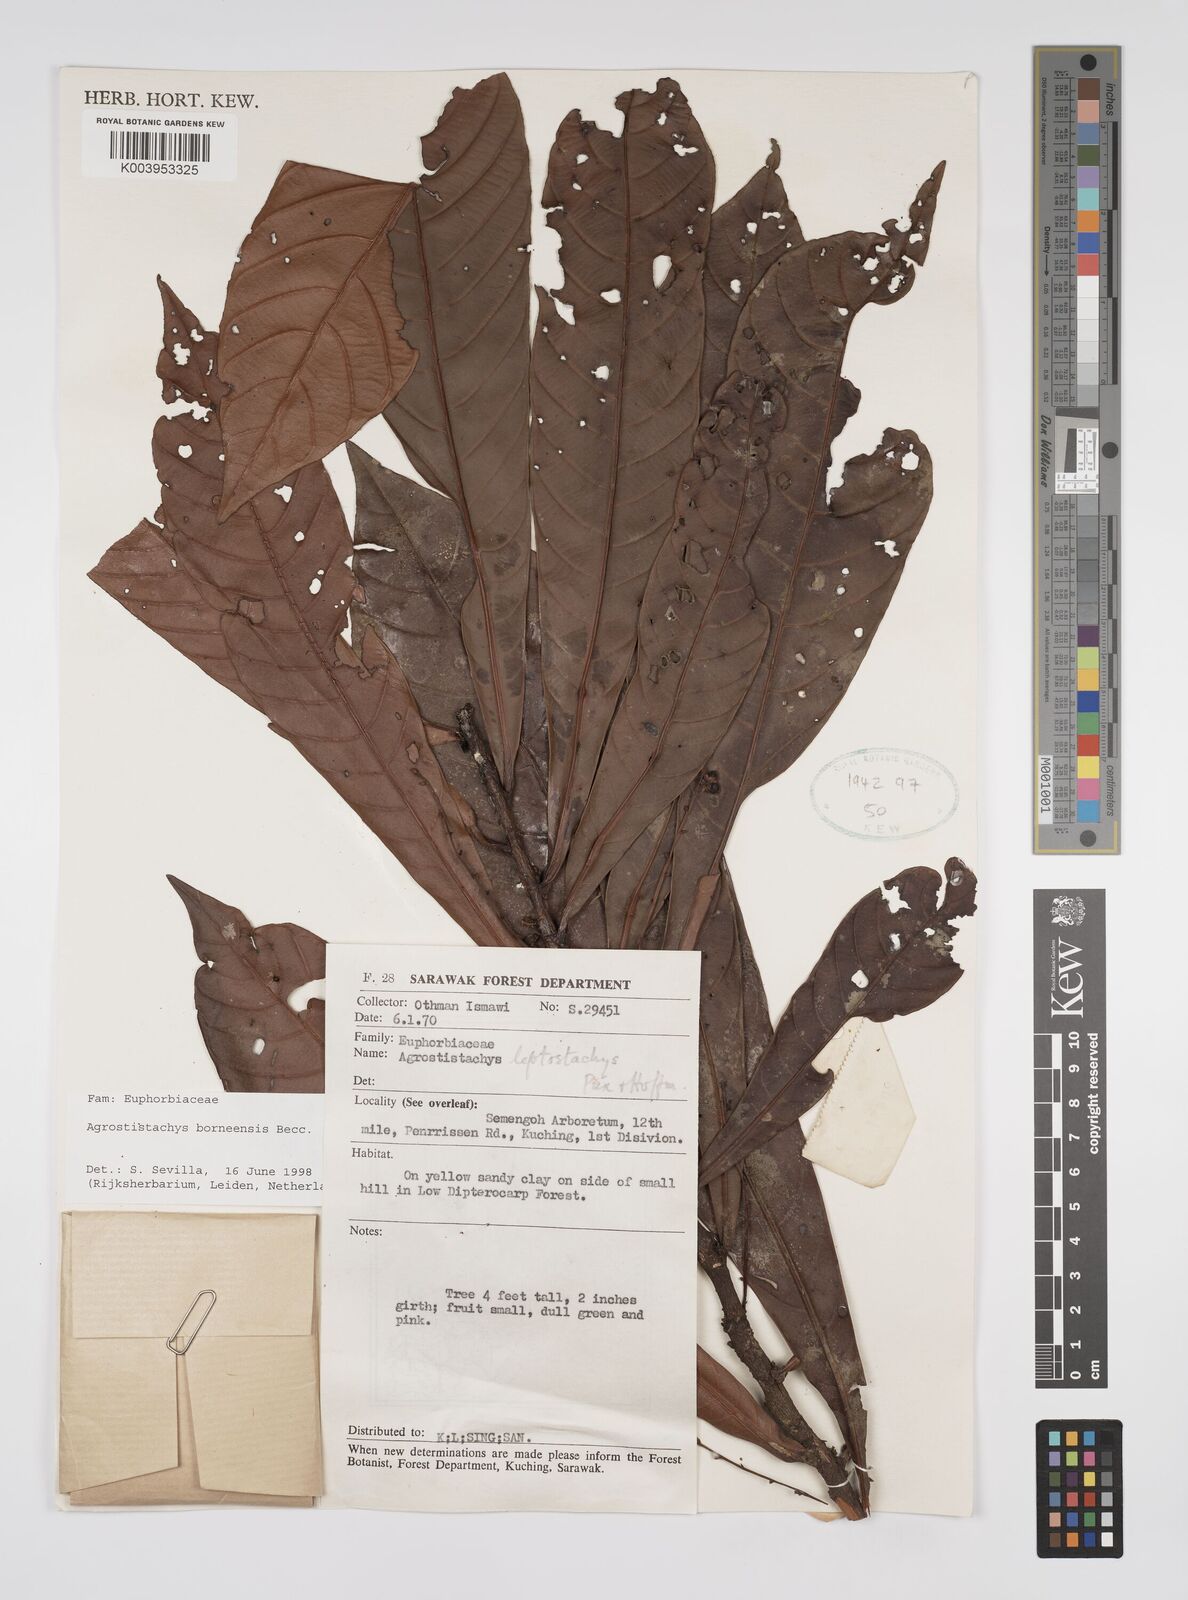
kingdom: Plantae
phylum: Tracheophyta
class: Magnoliopsida
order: Malpighiales
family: Euphorbiaceae
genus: Agrostistachys
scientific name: Agrostistachys borneensis
